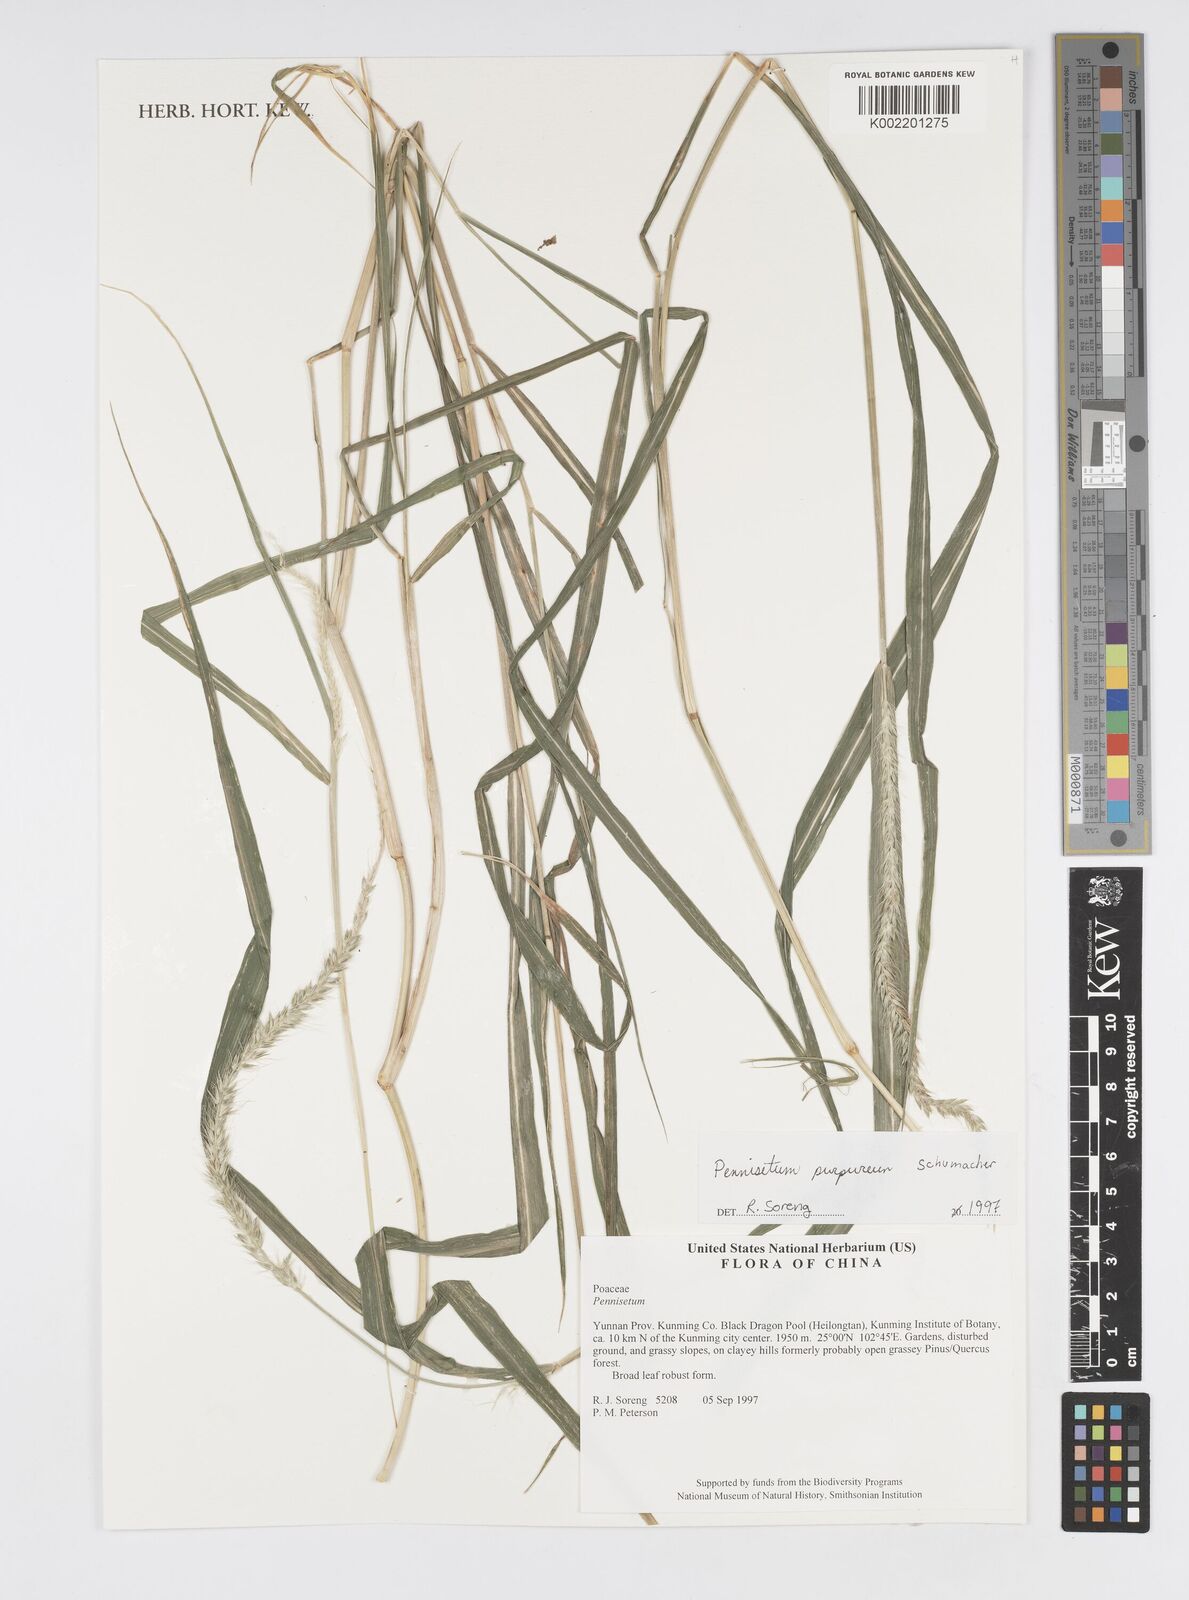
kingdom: Plantae
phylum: Tracheophyta
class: Liliopsida
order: Poales
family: Poaceae
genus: Cenchrus
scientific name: Cenchrus purpureus
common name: Elephant grass
